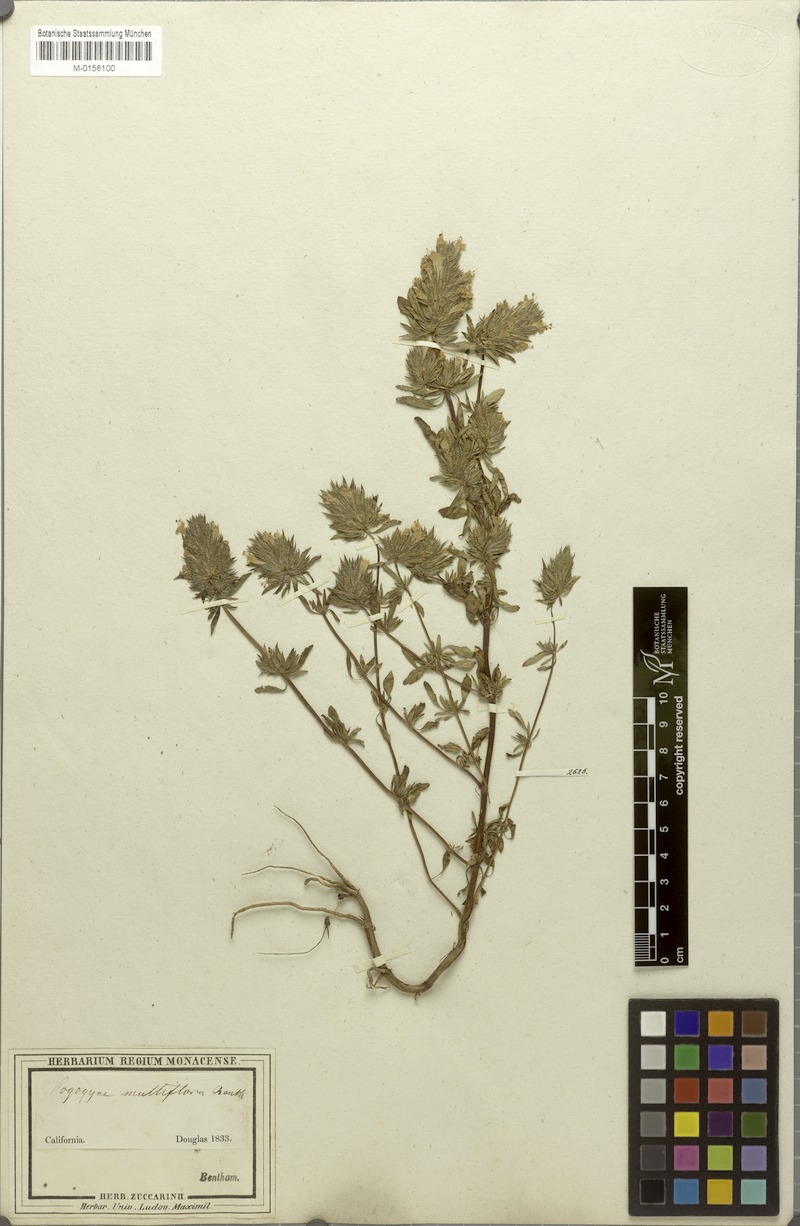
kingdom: Plantae
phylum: Tracheophyta
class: Magnoliopsida
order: Lamiales
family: Lamiaceae
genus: Pogogyne
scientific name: Pogogyne douglasii
